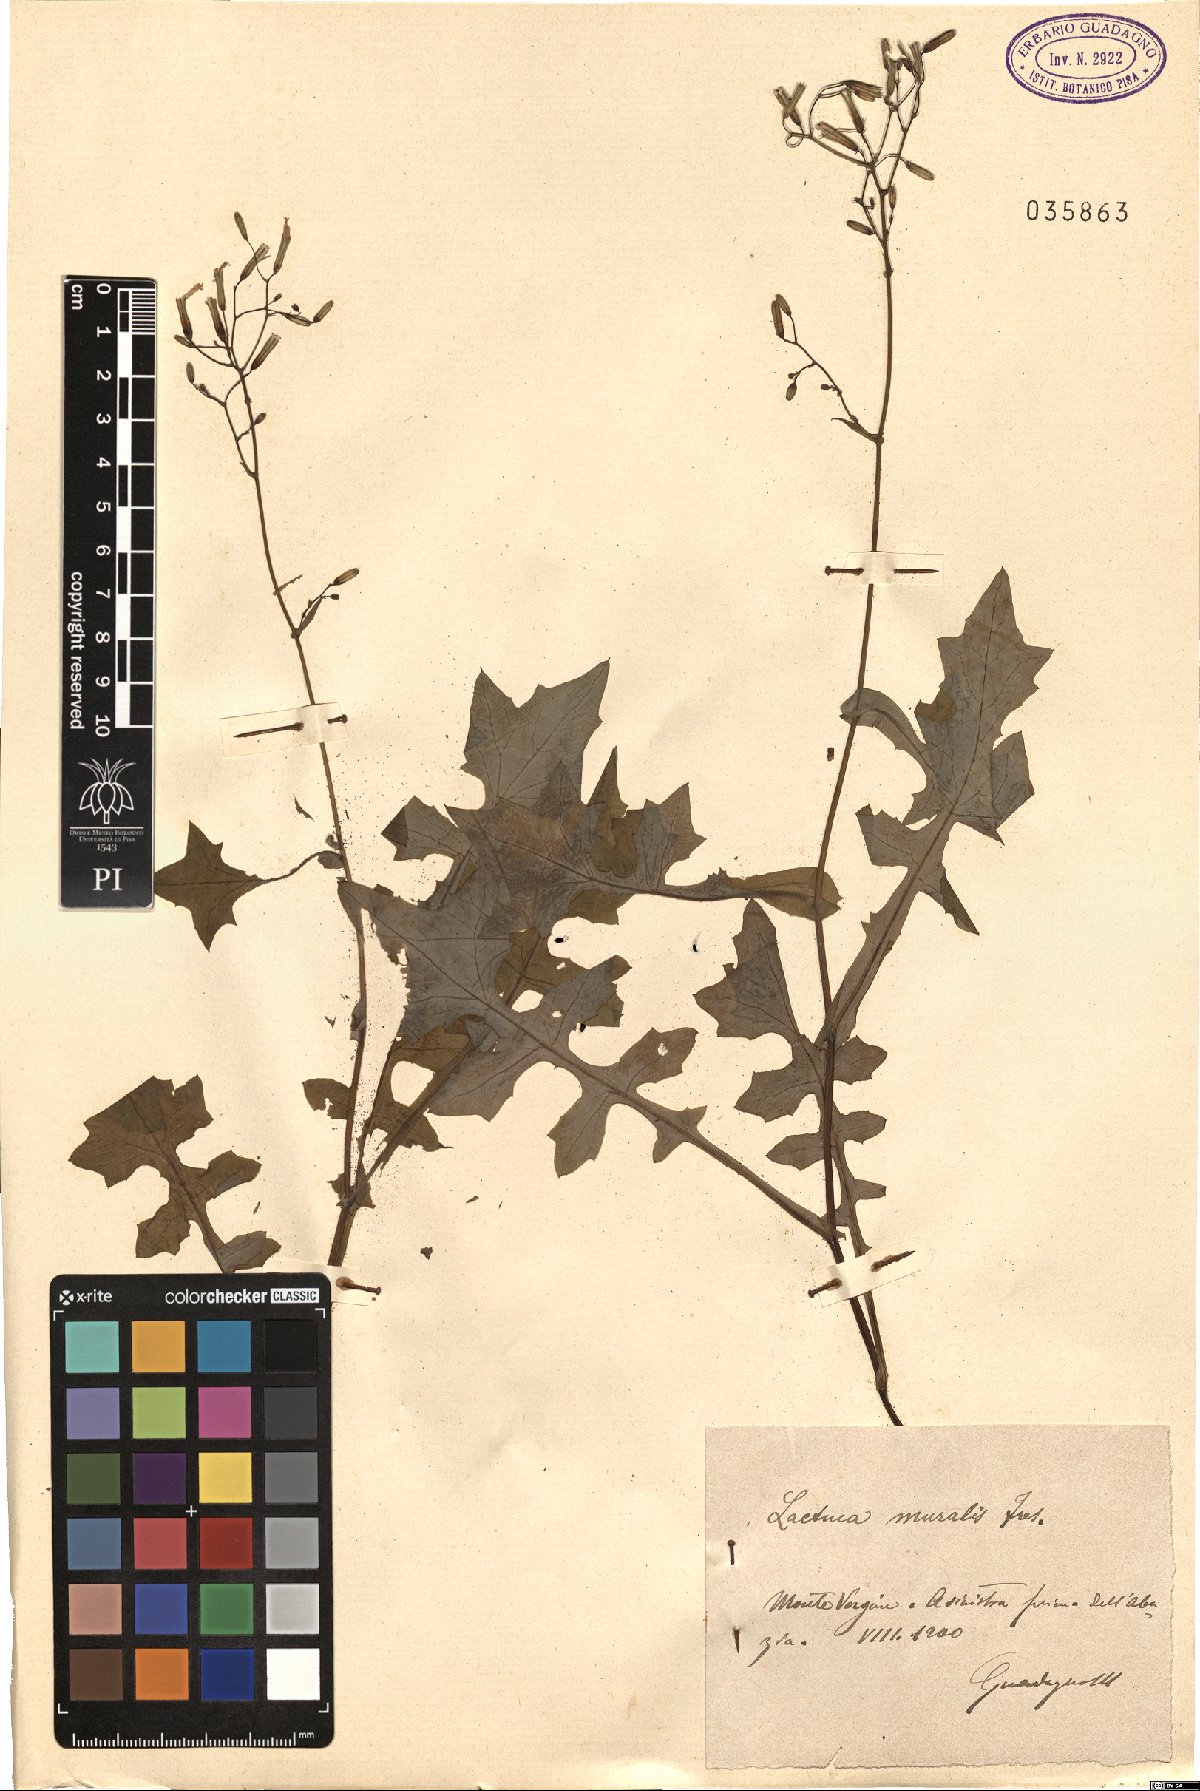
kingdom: Plantae
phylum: Tracheophyta
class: Magnoliopsida
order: Asterales
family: Asteraceae
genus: Mycelis
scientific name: Mycelis muralis
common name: Wall lettuce
